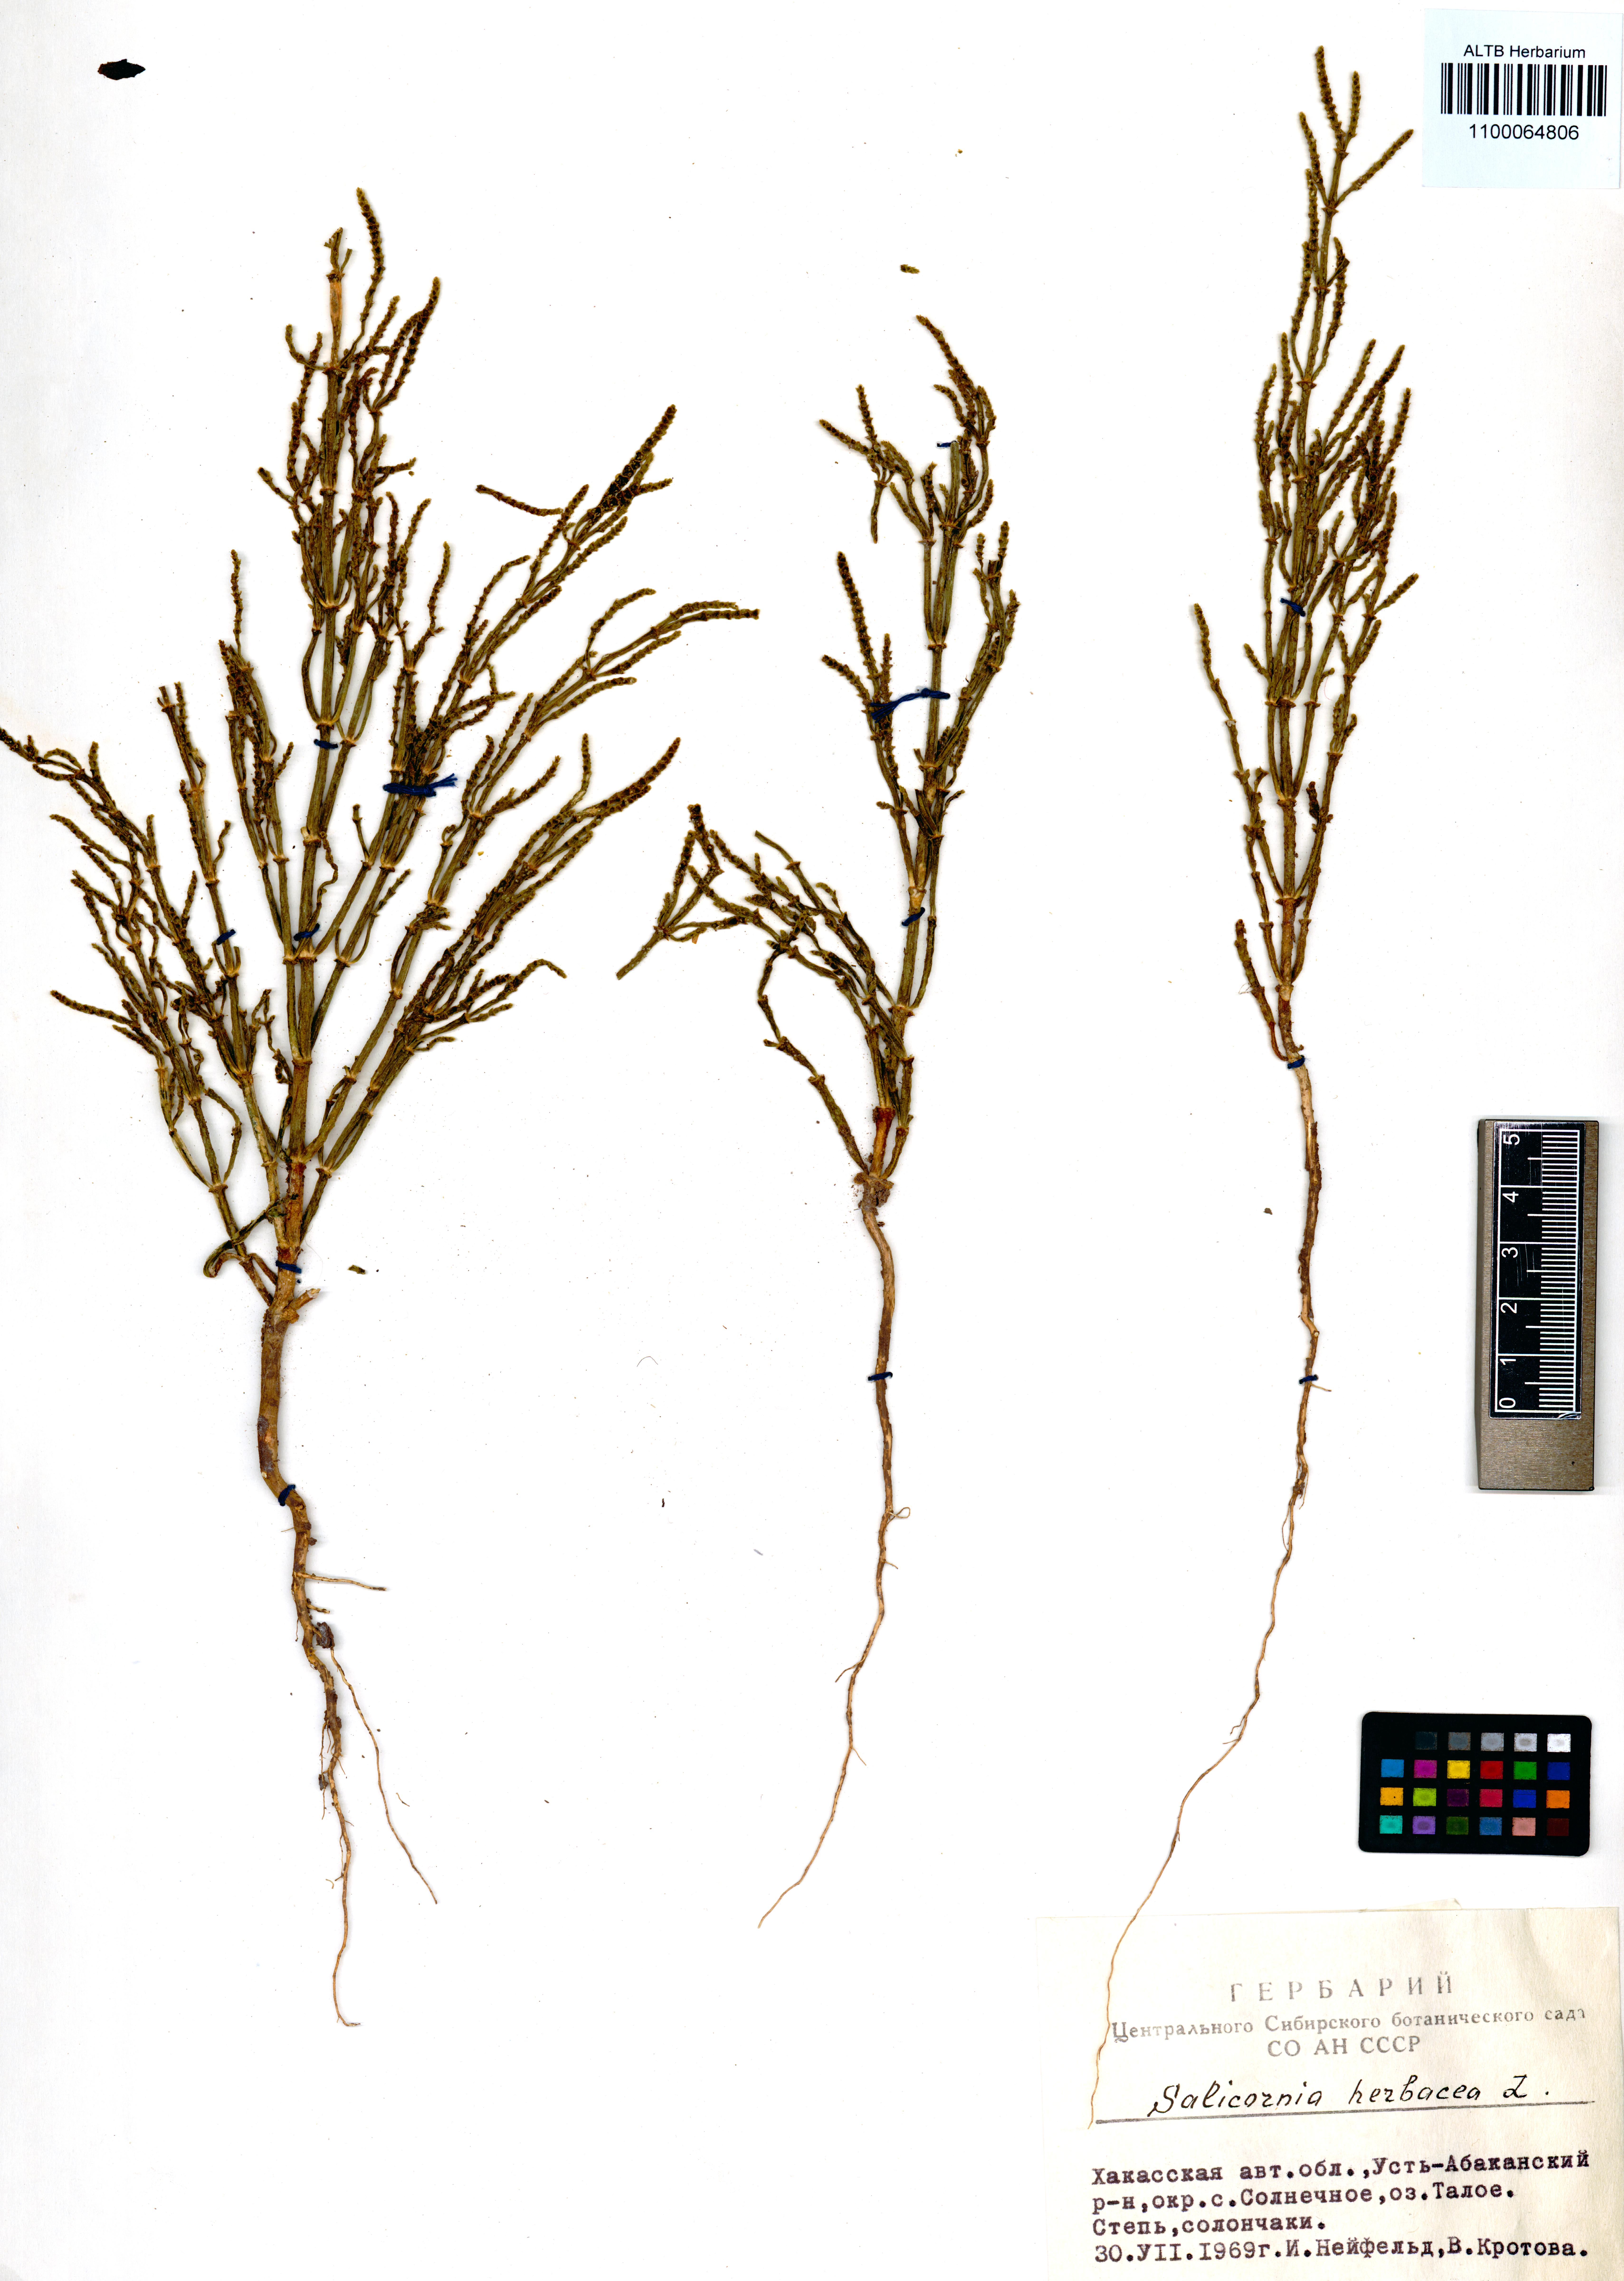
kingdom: Plantae
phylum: Tracheophyta
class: Magnoliopsida
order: Caryophyllales
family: Amaranthaceae
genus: Salicornia
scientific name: Salicornia europaea
